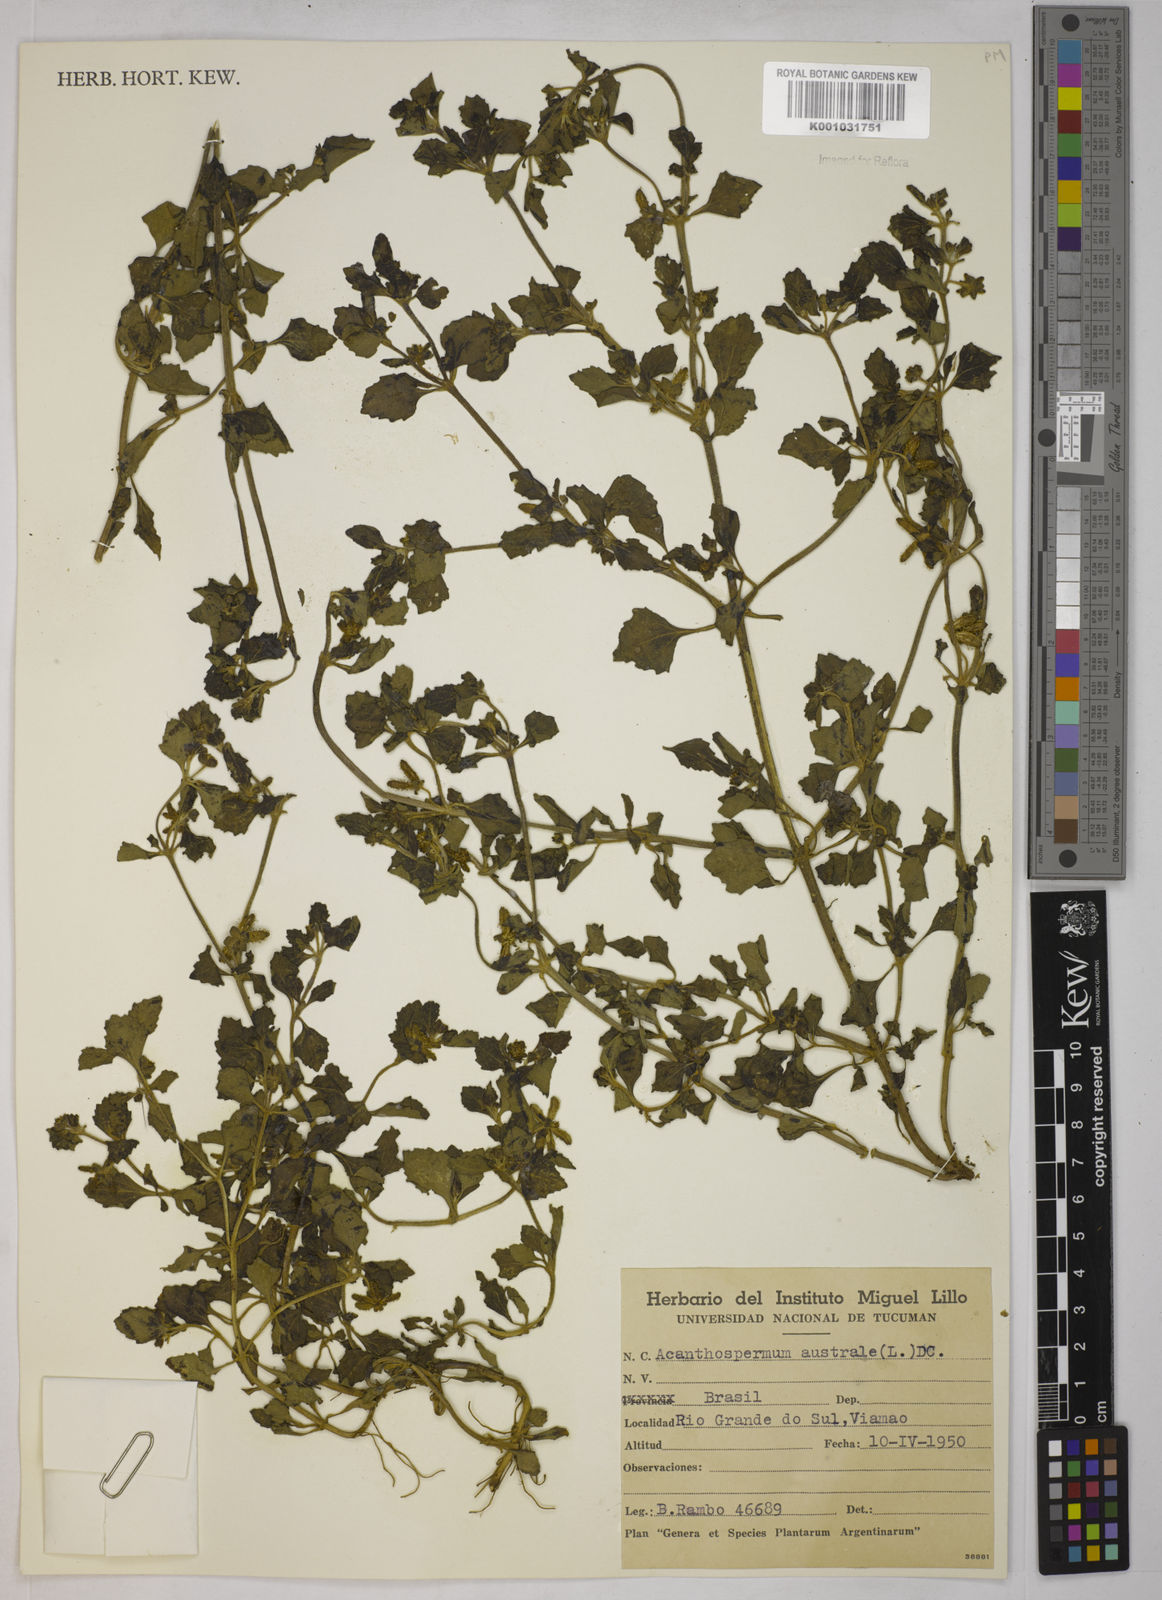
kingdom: Plantae
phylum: Tracheophyta
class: Magnoliopsida
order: Asterales
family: Asteraceae
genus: Acanthospermum
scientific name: Acanthospermum australe
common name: Paraguayan starbur
